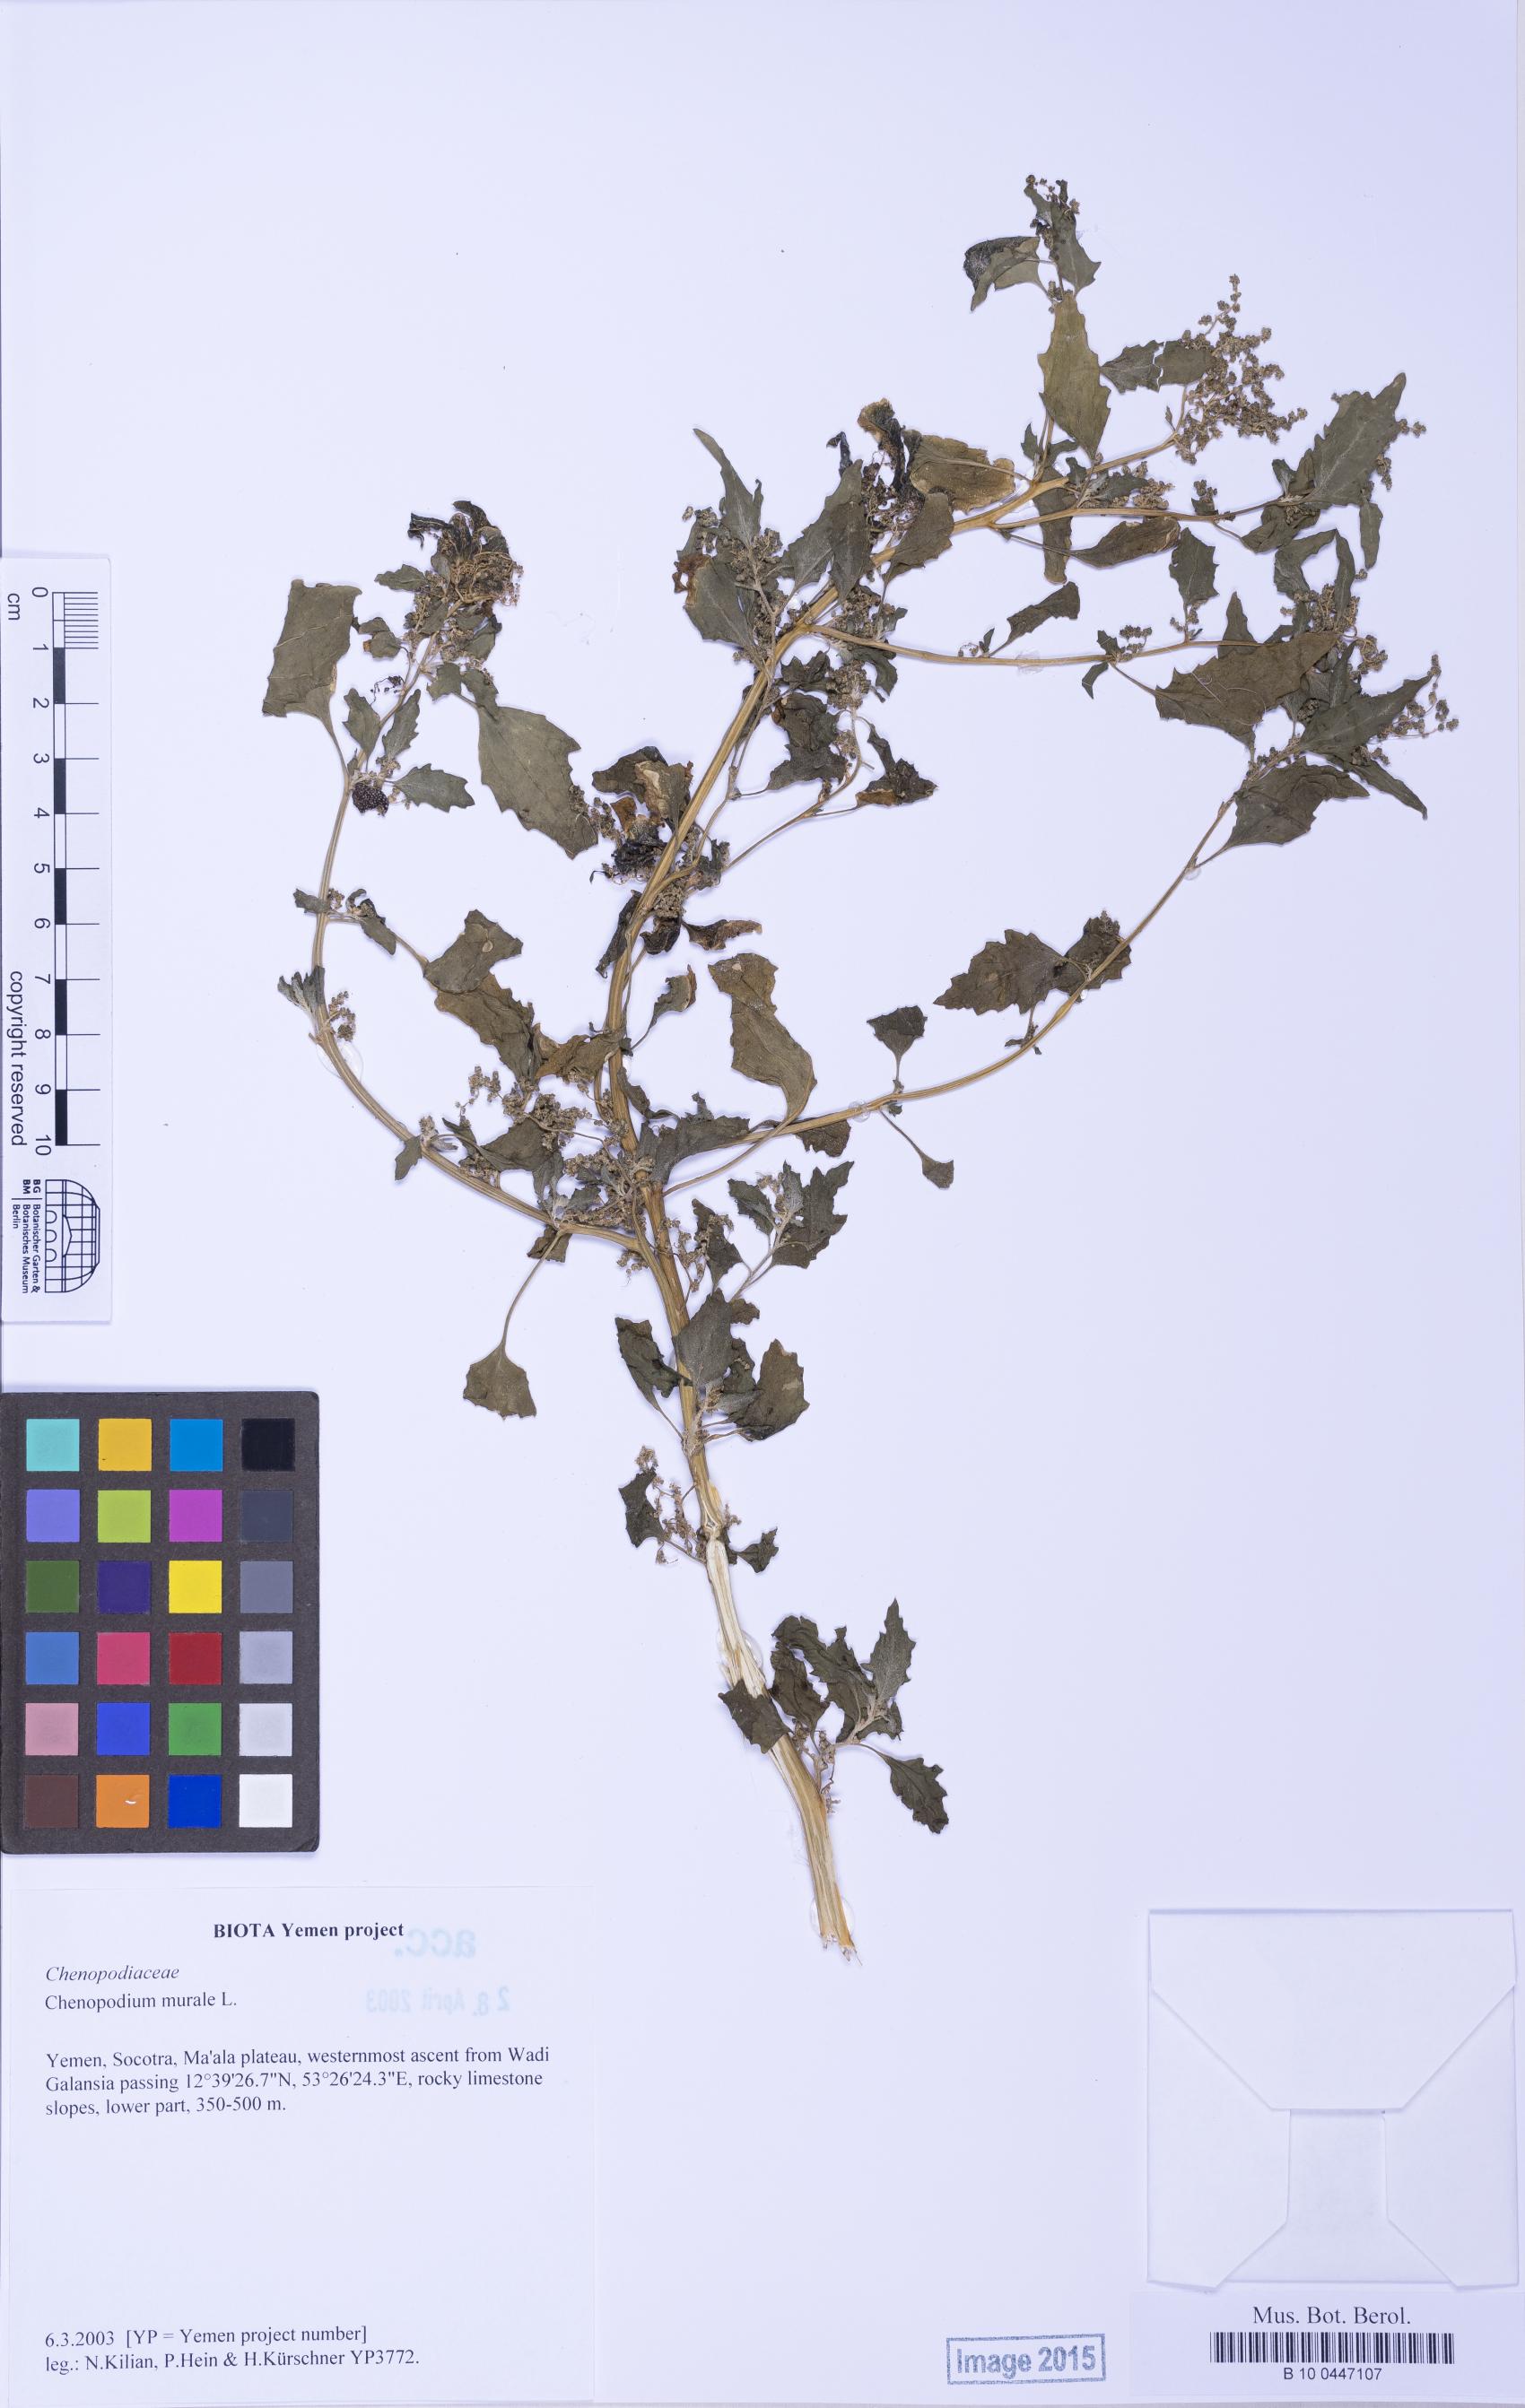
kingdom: Plantae
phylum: Tracheophyta
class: Magnoliopsida
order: Caryophyllales
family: Amaranthaceae
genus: Chenopodiastrum
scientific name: Chenopodiastrum murale
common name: Sowbane
